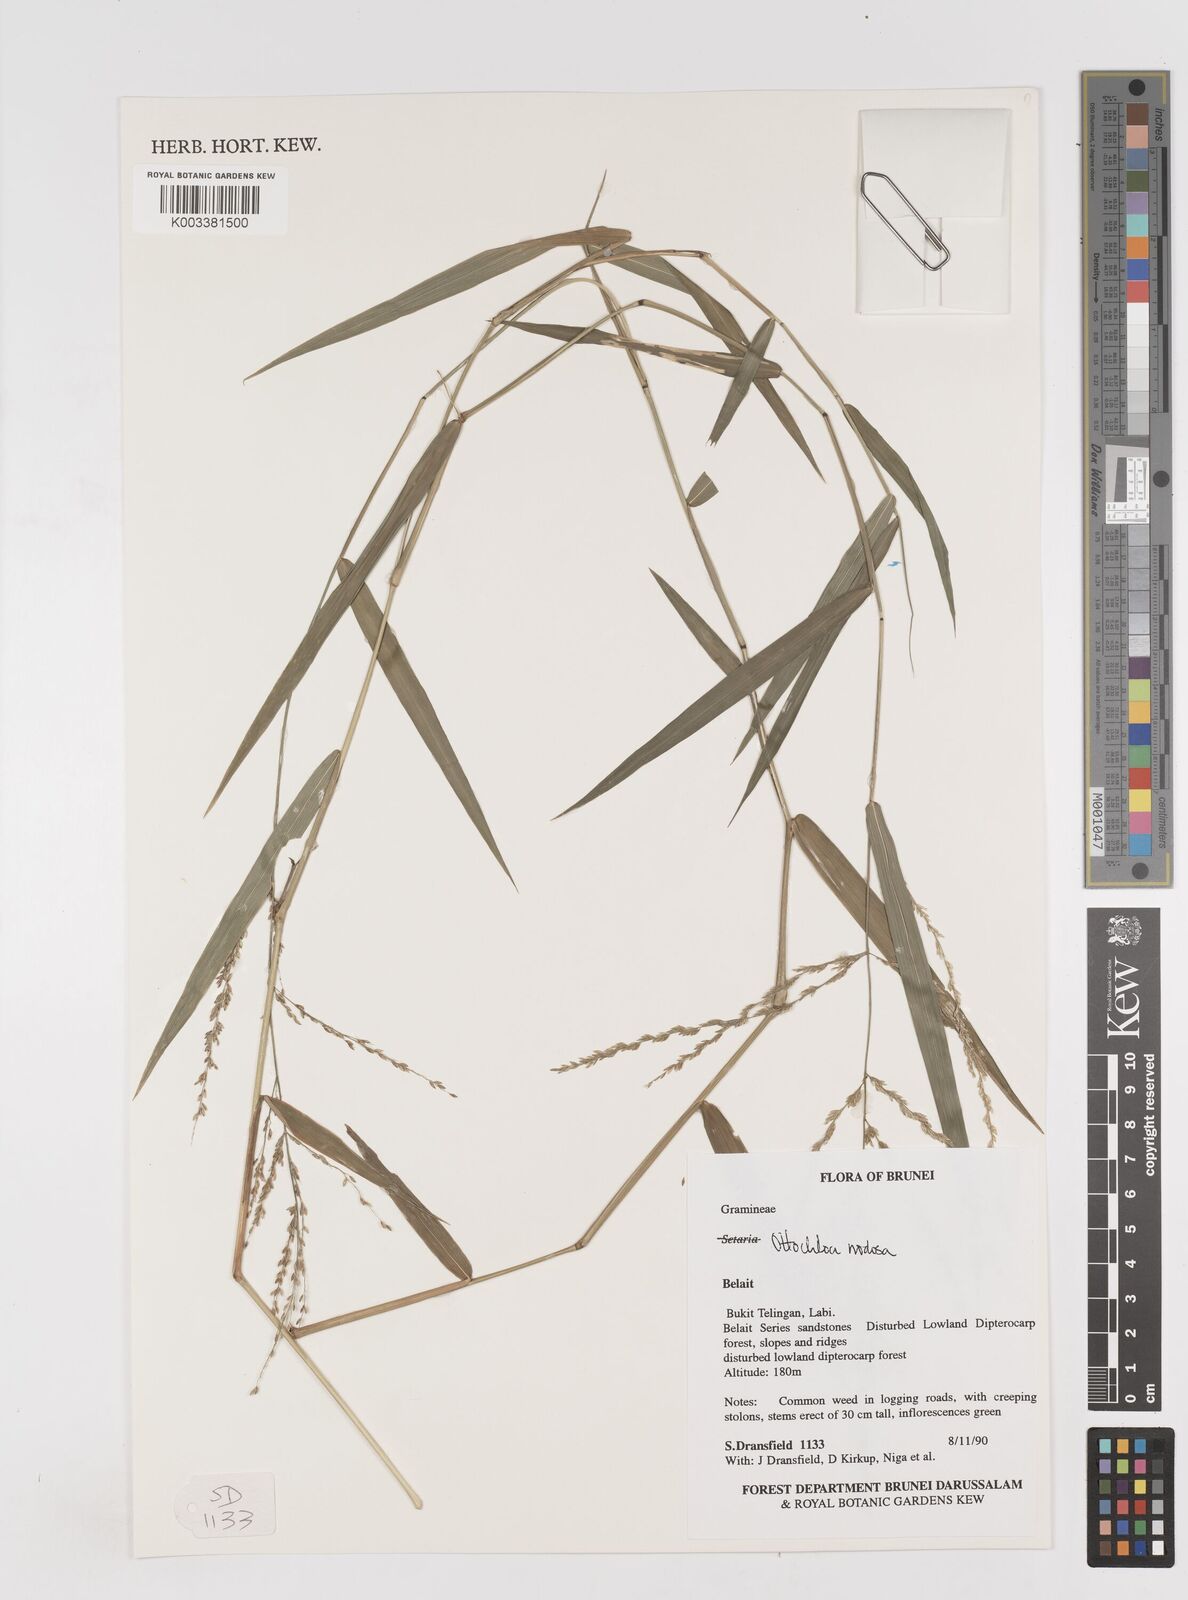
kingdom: Plantae
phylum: Tracheophyta
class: Liliopsida
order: Poales
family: Poaceae
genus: Ottochloa
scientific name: Ottochloa nodosa
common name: Slender-panic grass
